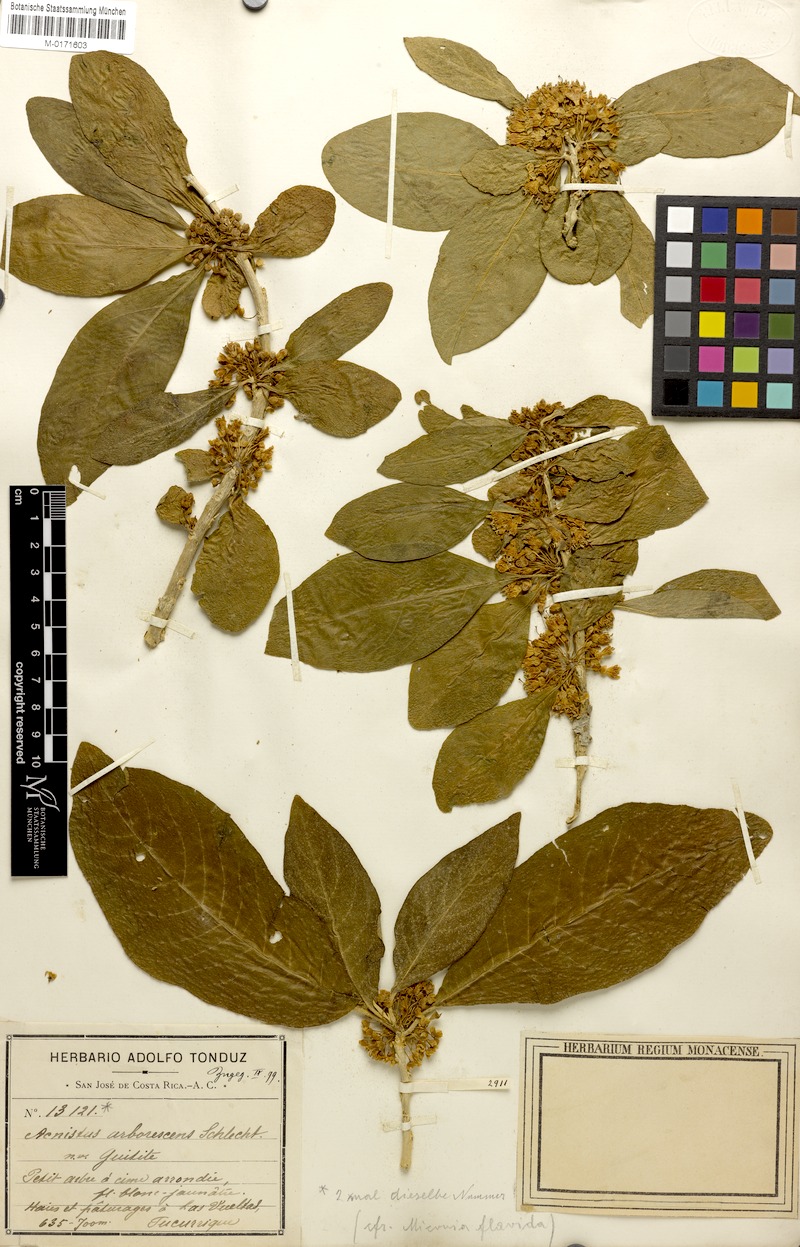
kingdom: Plantae
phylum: Tracheophyta
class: Magnoliopsida
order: Solanales
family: Solanaceae
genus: Iochroma
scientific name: Iochroma arborescens
